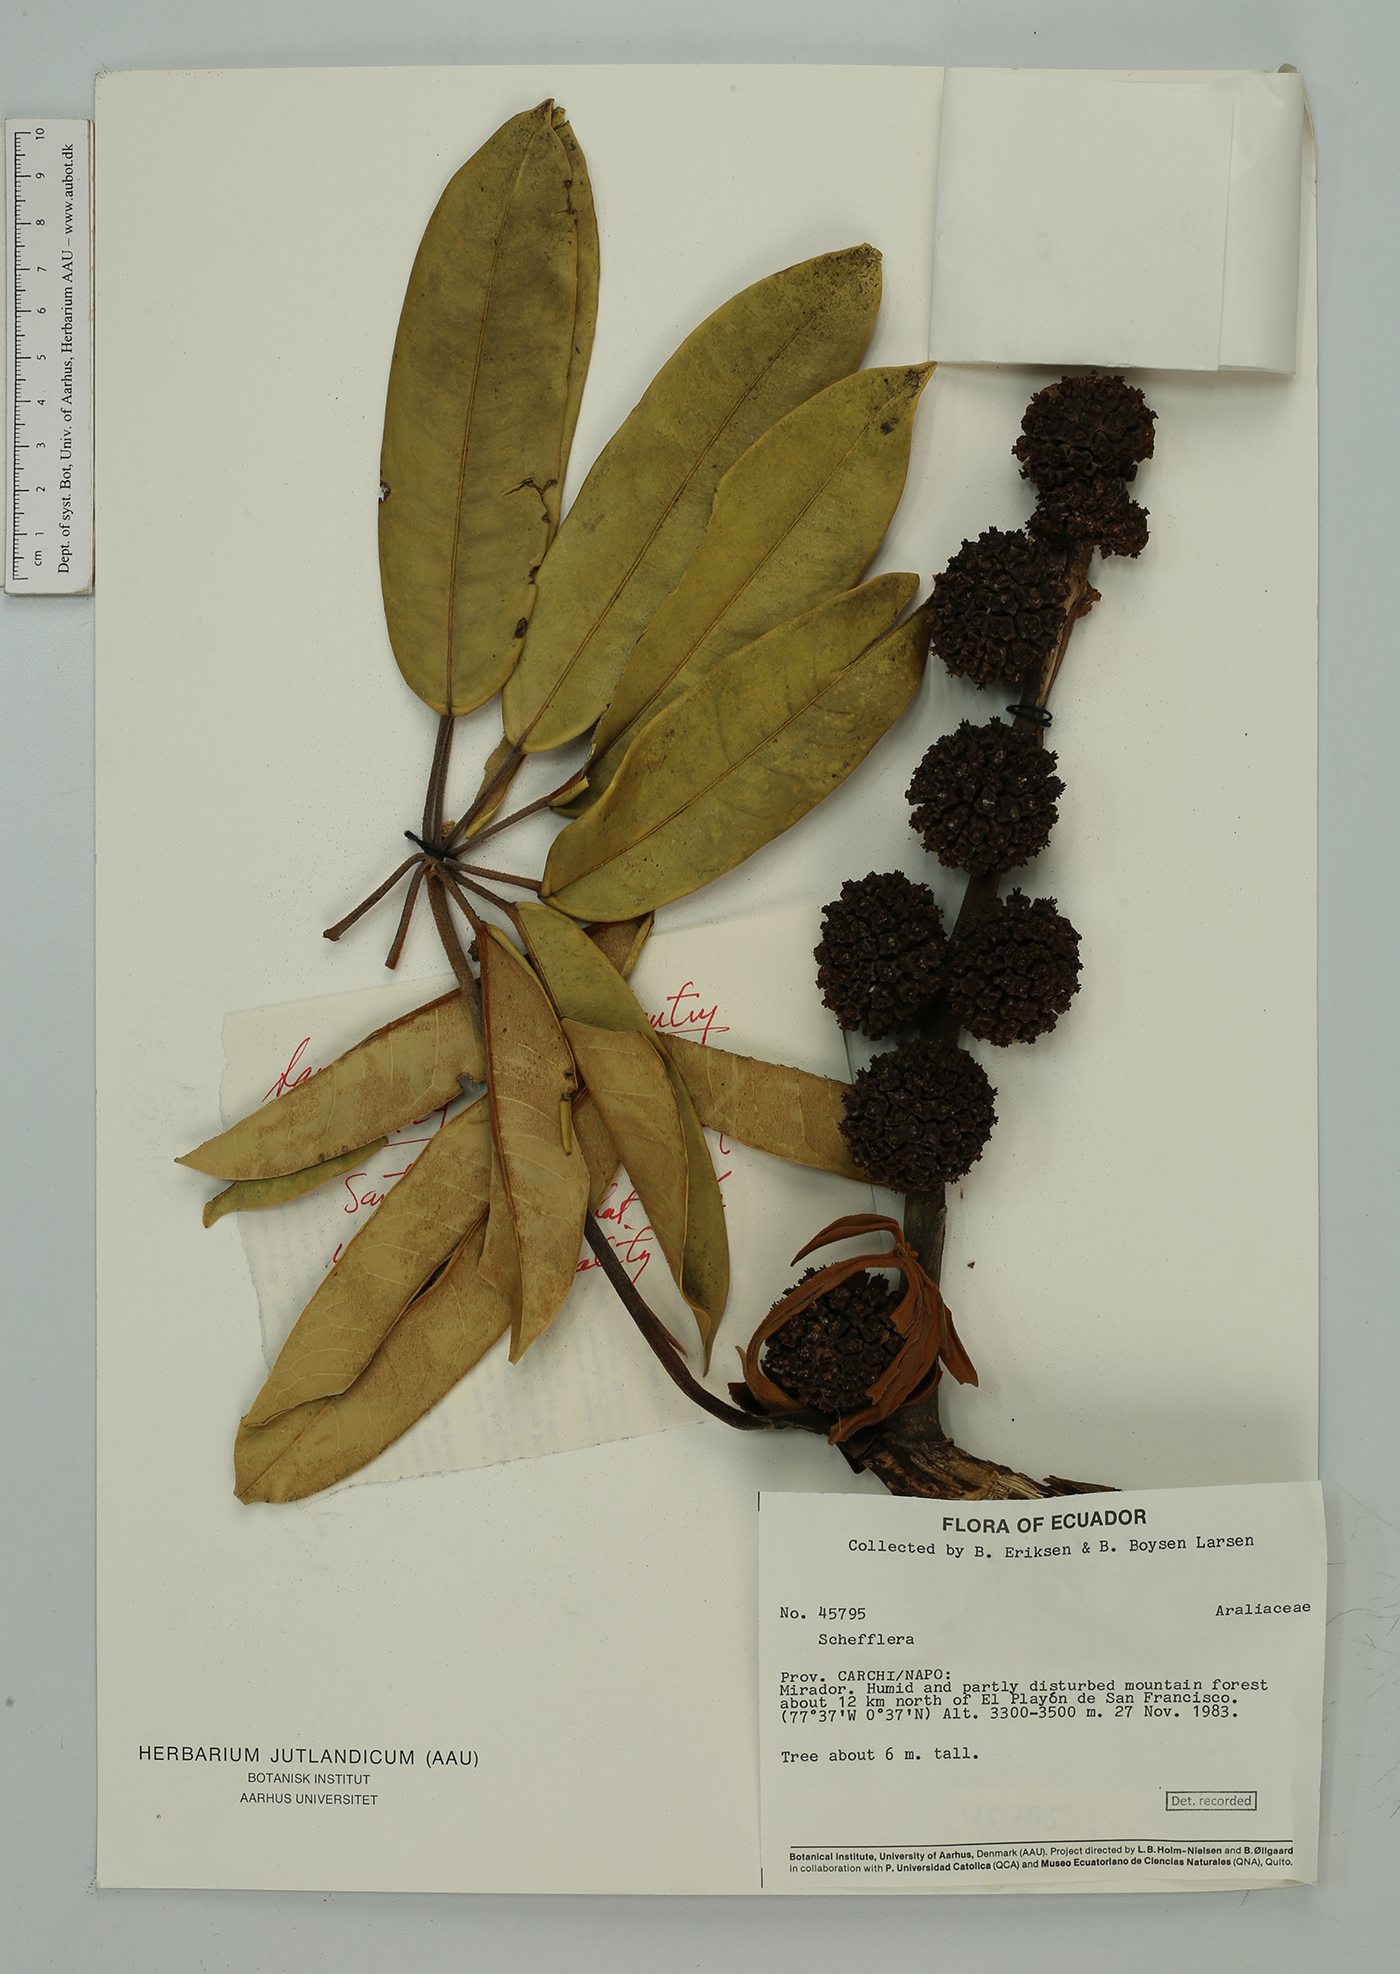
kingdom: Plantae
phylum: Tracheophyta
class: Magnoliopsida
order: Apiales
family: Araliaceae
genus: Sciodaphyllum
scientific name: Sciodaphyllum basiorevolutum
